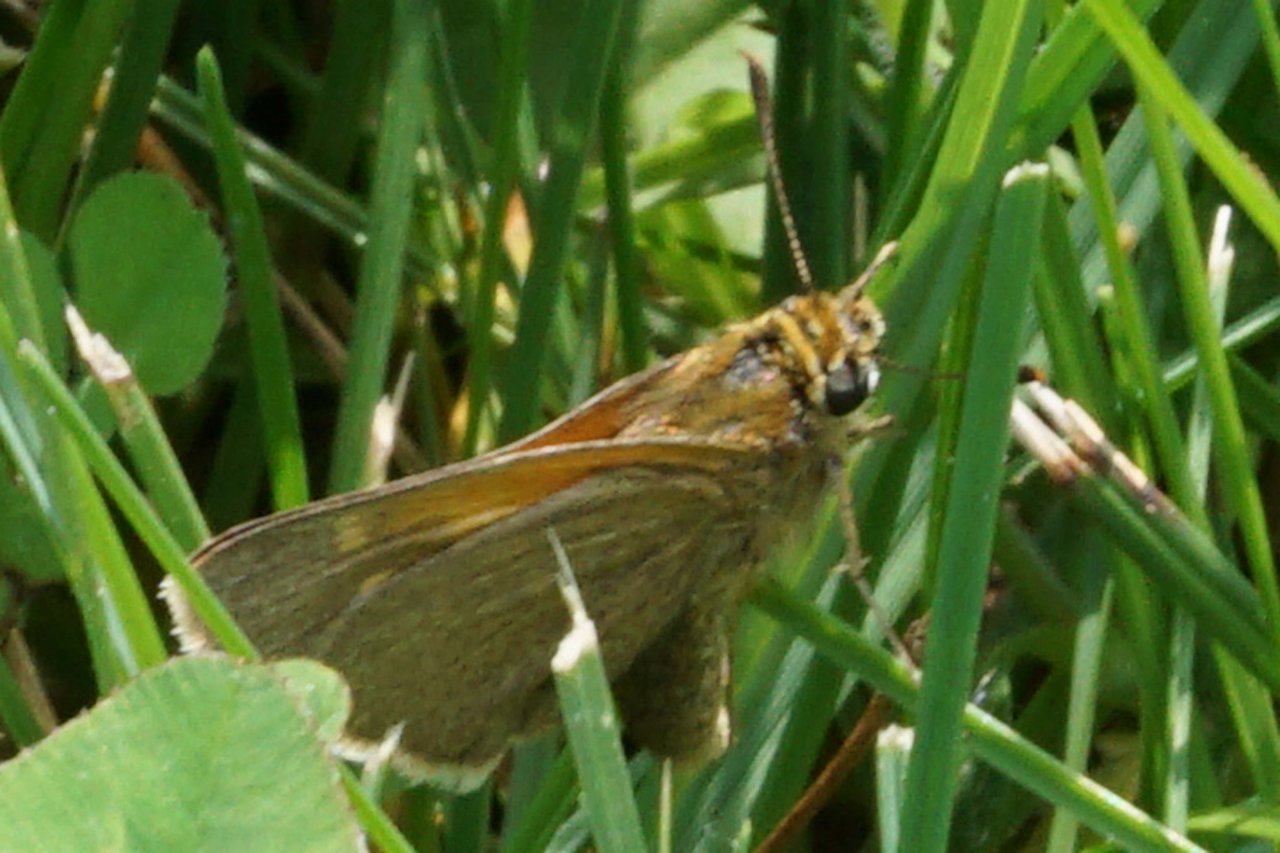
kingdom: Animalia
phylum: Arthropoda
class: Insecta
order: Lepidoptera
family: Hesperiidae
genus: Polites
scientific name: Polites themistocles
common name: Tawny-edged Skipper
